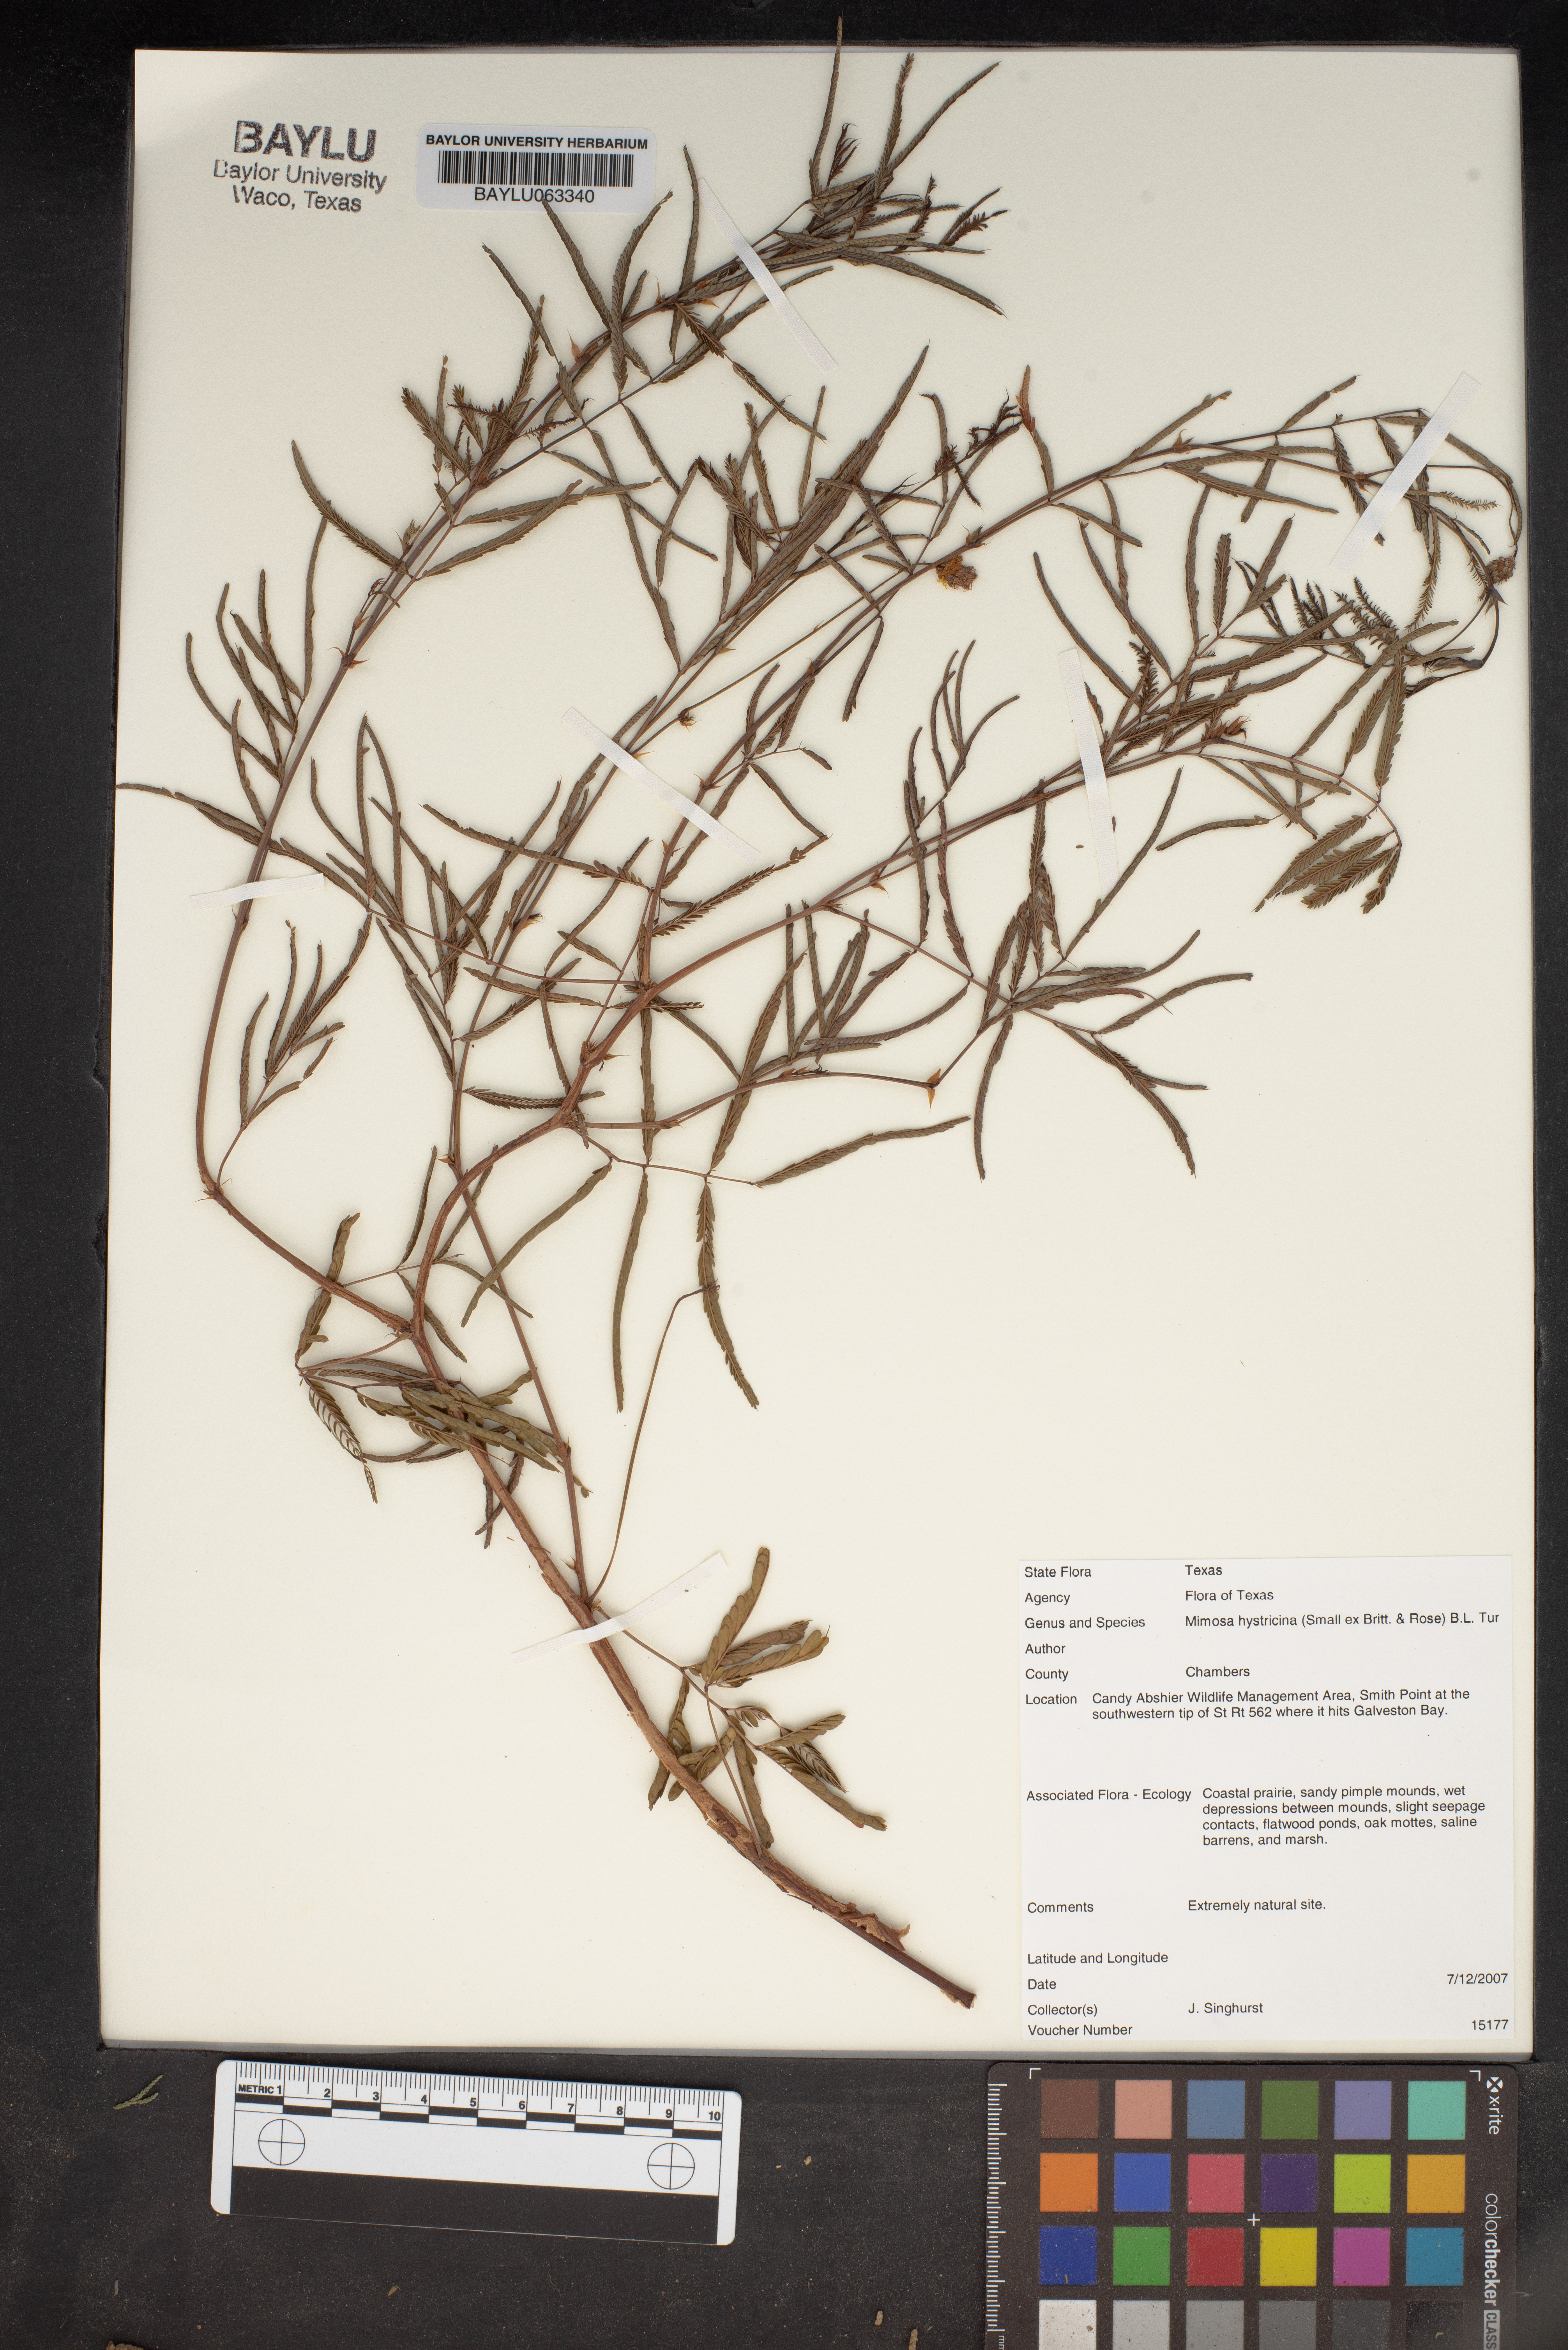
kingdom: Plantae
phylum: Tracheophyta
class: Magnoliopsida
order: Fabales
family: Fabaceae
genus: Mimosa
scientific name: Mimosa hystricina
